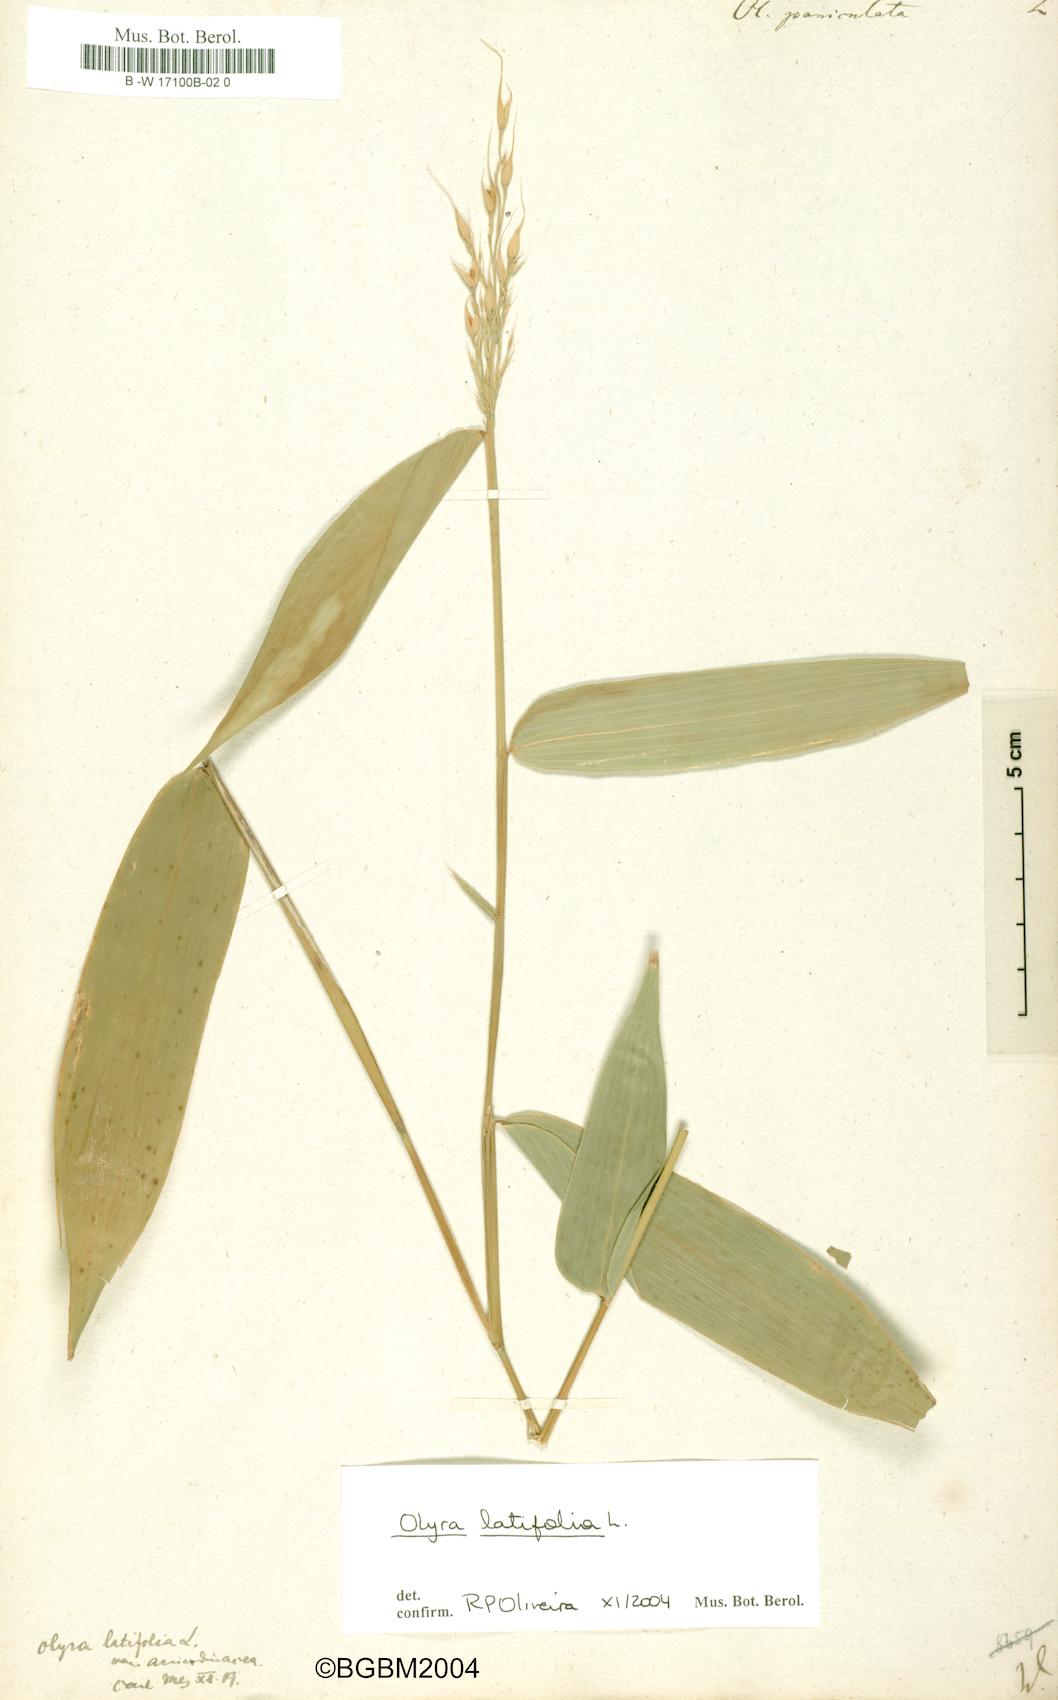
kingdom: Plantae
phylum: Tracheophyta
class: Liliopsida
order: Poales
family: Poaceae
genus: Olyra
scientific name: Olyra latifolia
